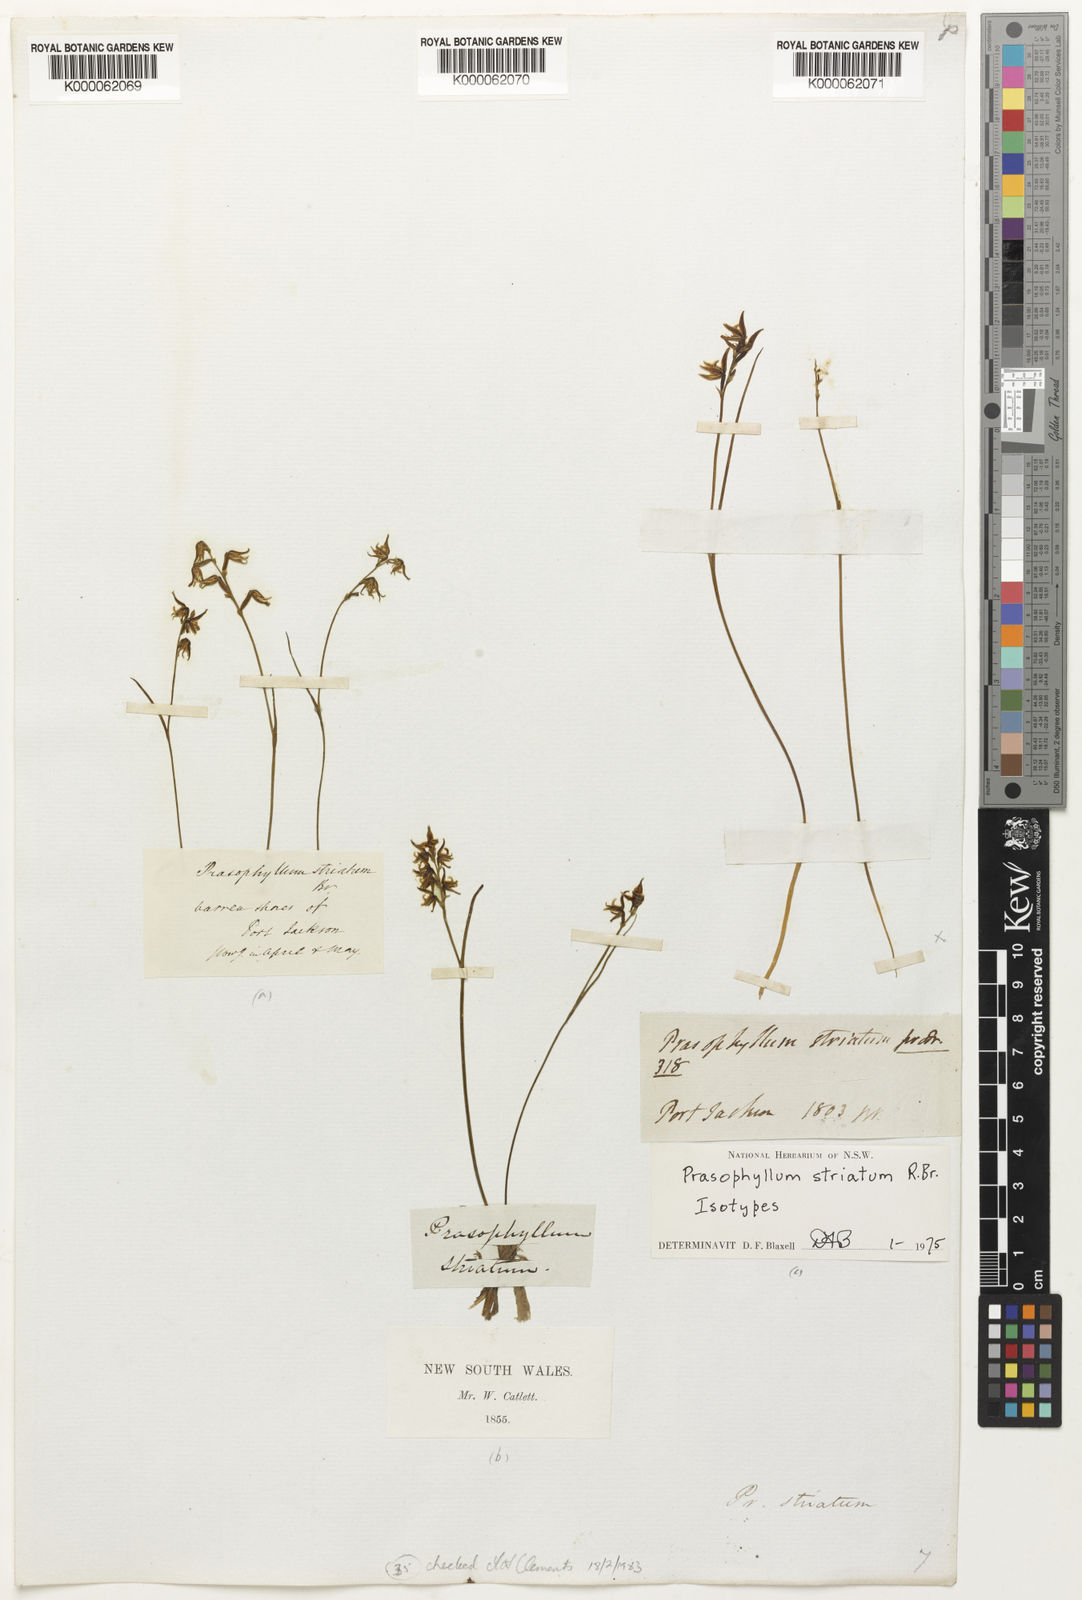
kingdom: Plantae
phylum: Tracheophyta
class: Liliopsida
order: Asparagales
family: Orchidaceae
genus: Prasophyllum
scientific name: Prasophyllum striatum
